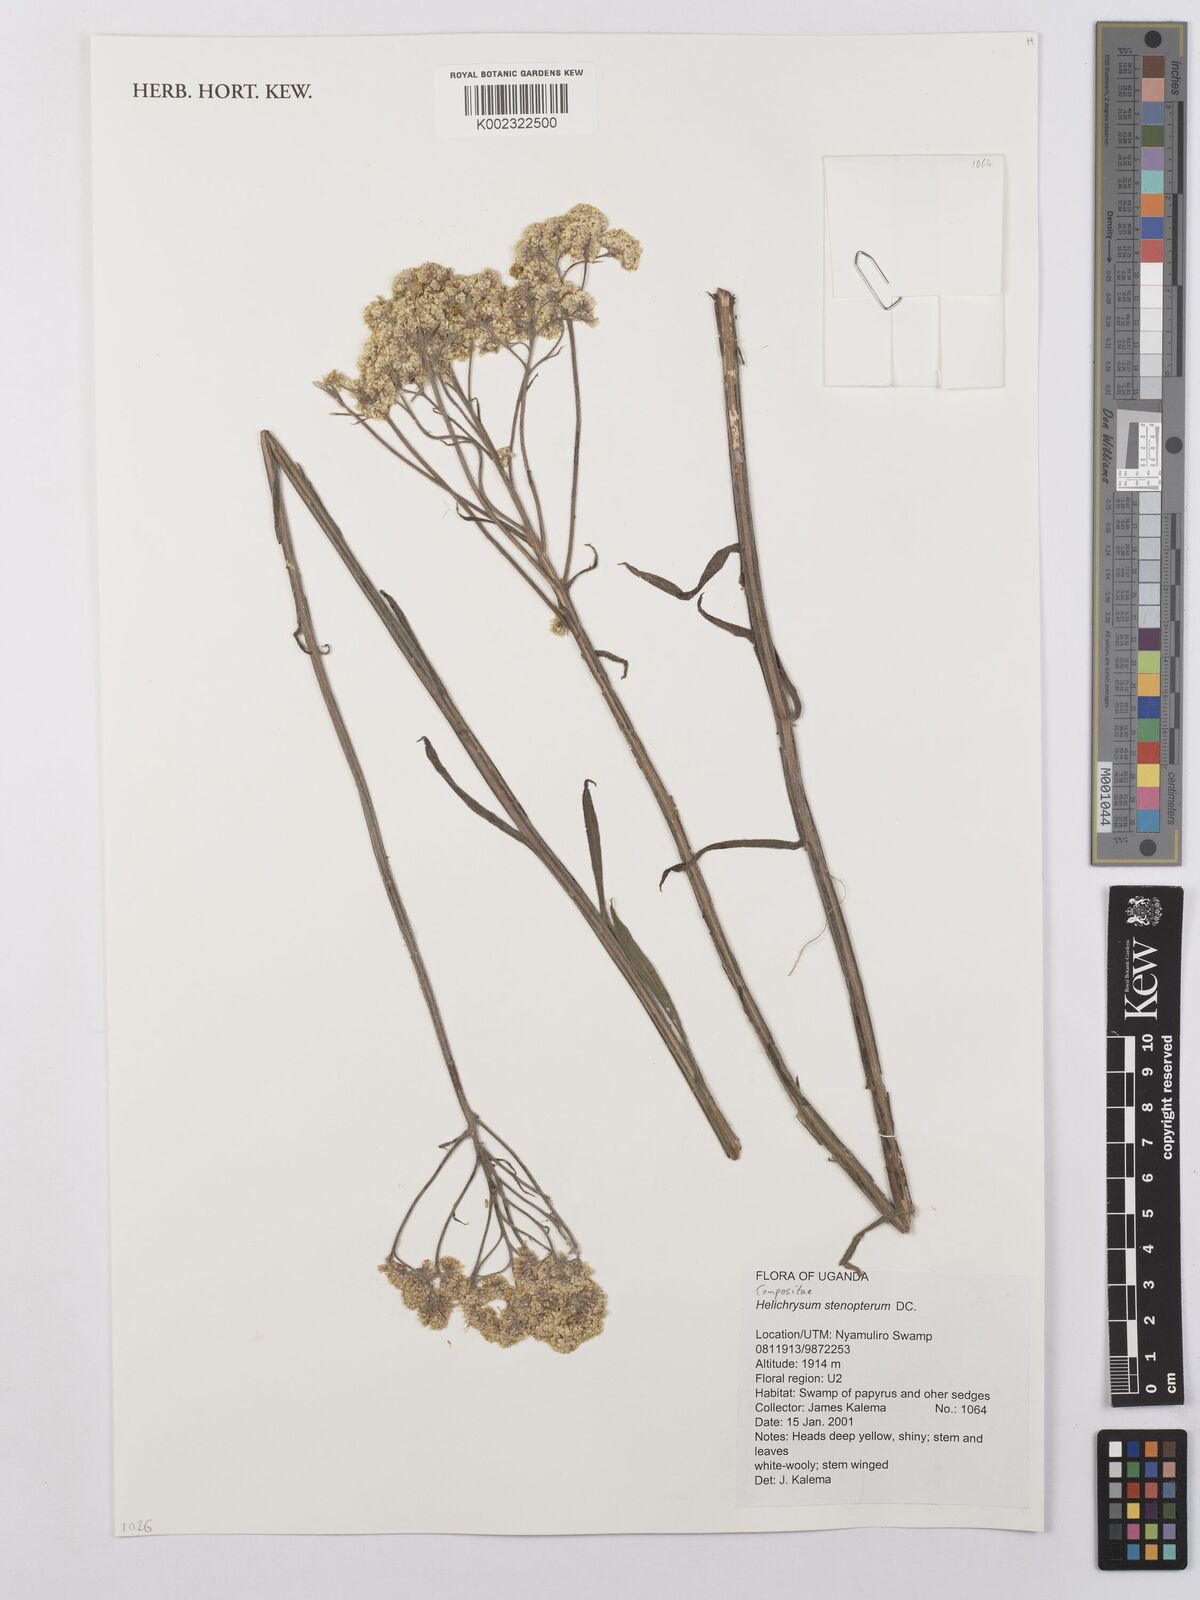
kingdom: Plantae
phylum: Tracheophyta
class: Magnoliopsida
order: Asterales
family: Asteraceae
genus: Helichrysum
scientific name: Helichrysum stenopterum
